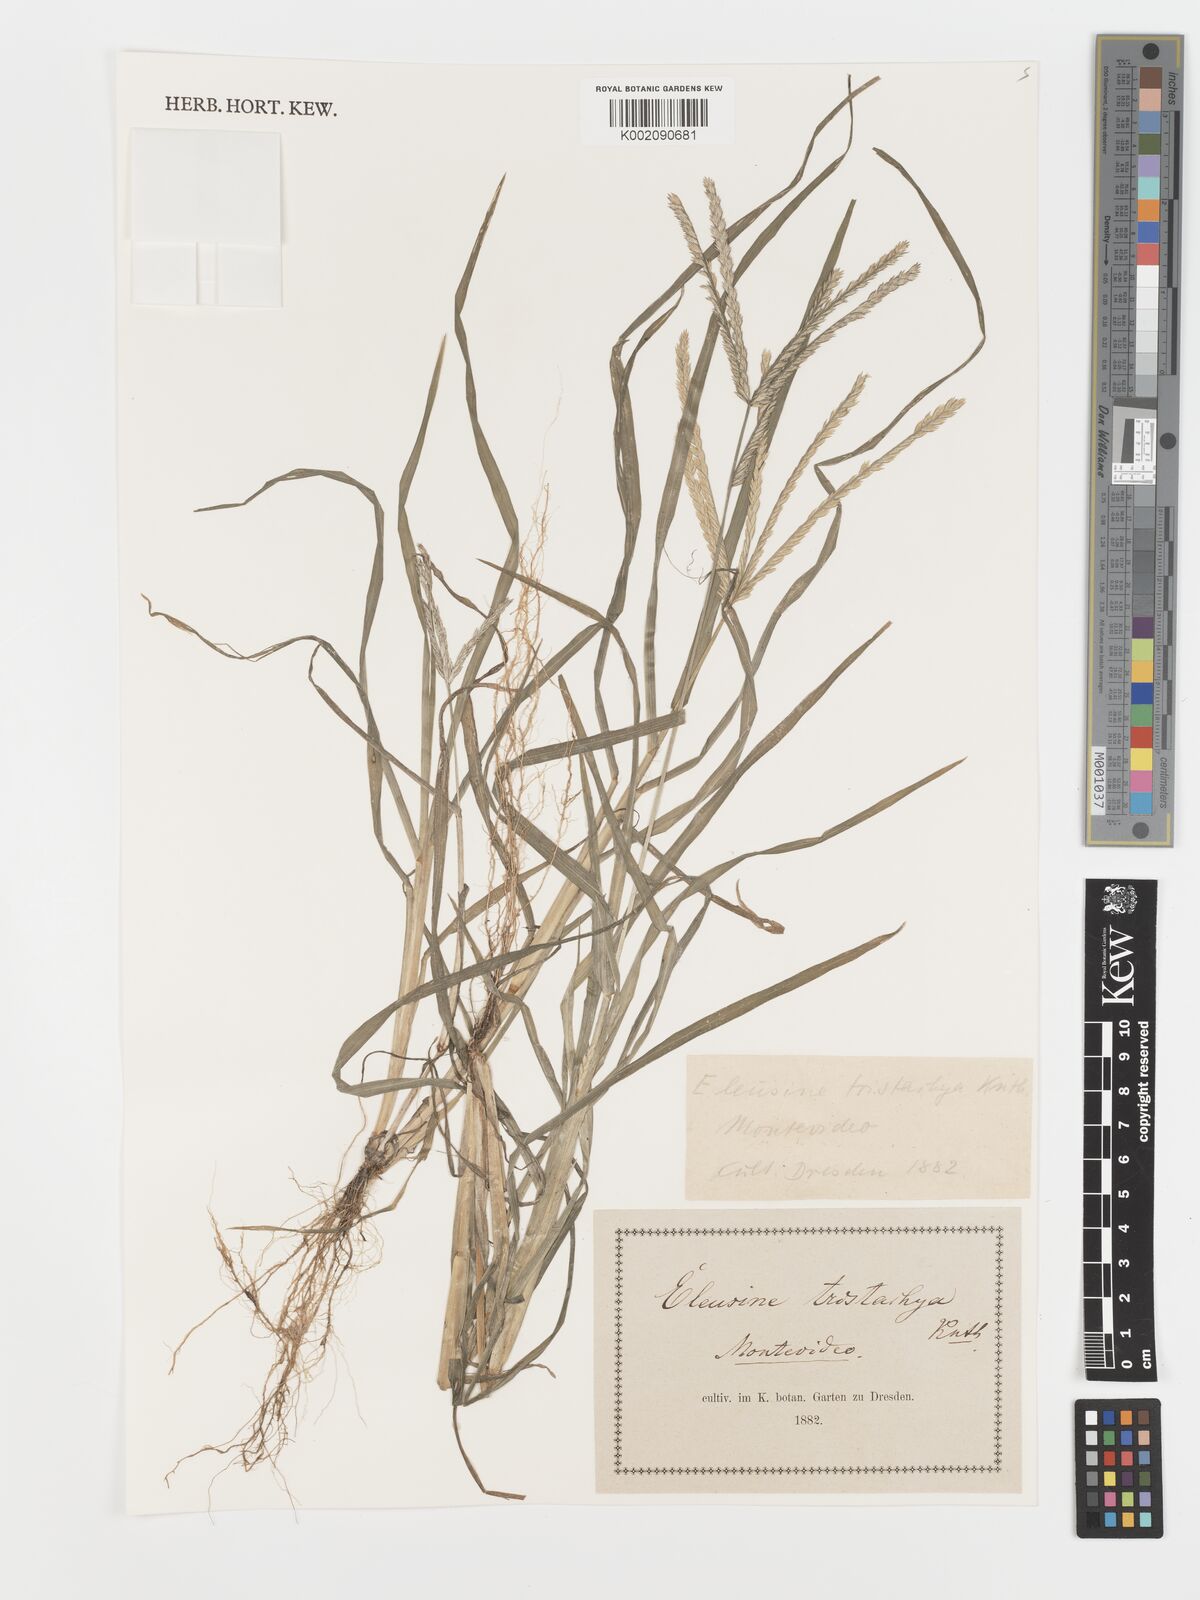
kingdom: Plantae
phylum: Tracheophyta
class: Liliopsida
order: Poales
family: Poaceae
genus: Eleusine
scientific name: Eleusine indica
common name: Yard-grass
